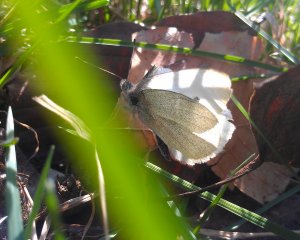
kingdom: Animalia
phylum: Arthropoda
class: Insecta
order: Lepidoptera
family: Pieridae
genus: Pieris
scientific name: Pieris rapae
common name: Cabbage White
